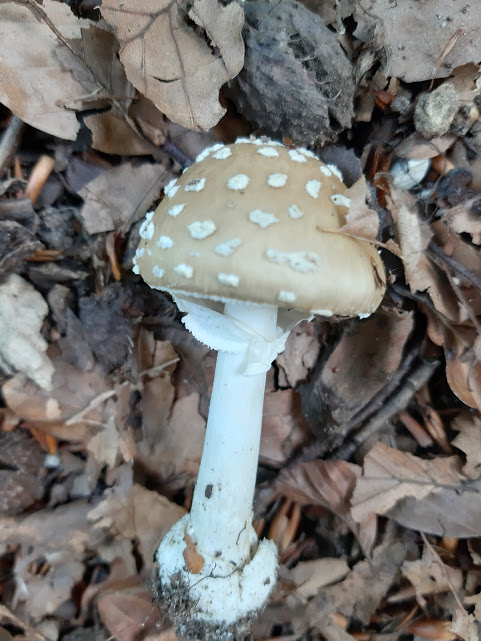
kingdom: Fungi
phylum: Basidiomycota
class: Agaricomycetes
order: Agaricales
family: Amanitaceae
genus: Amanita
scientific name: Amanita pantherina
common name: panter-fluesvamp
